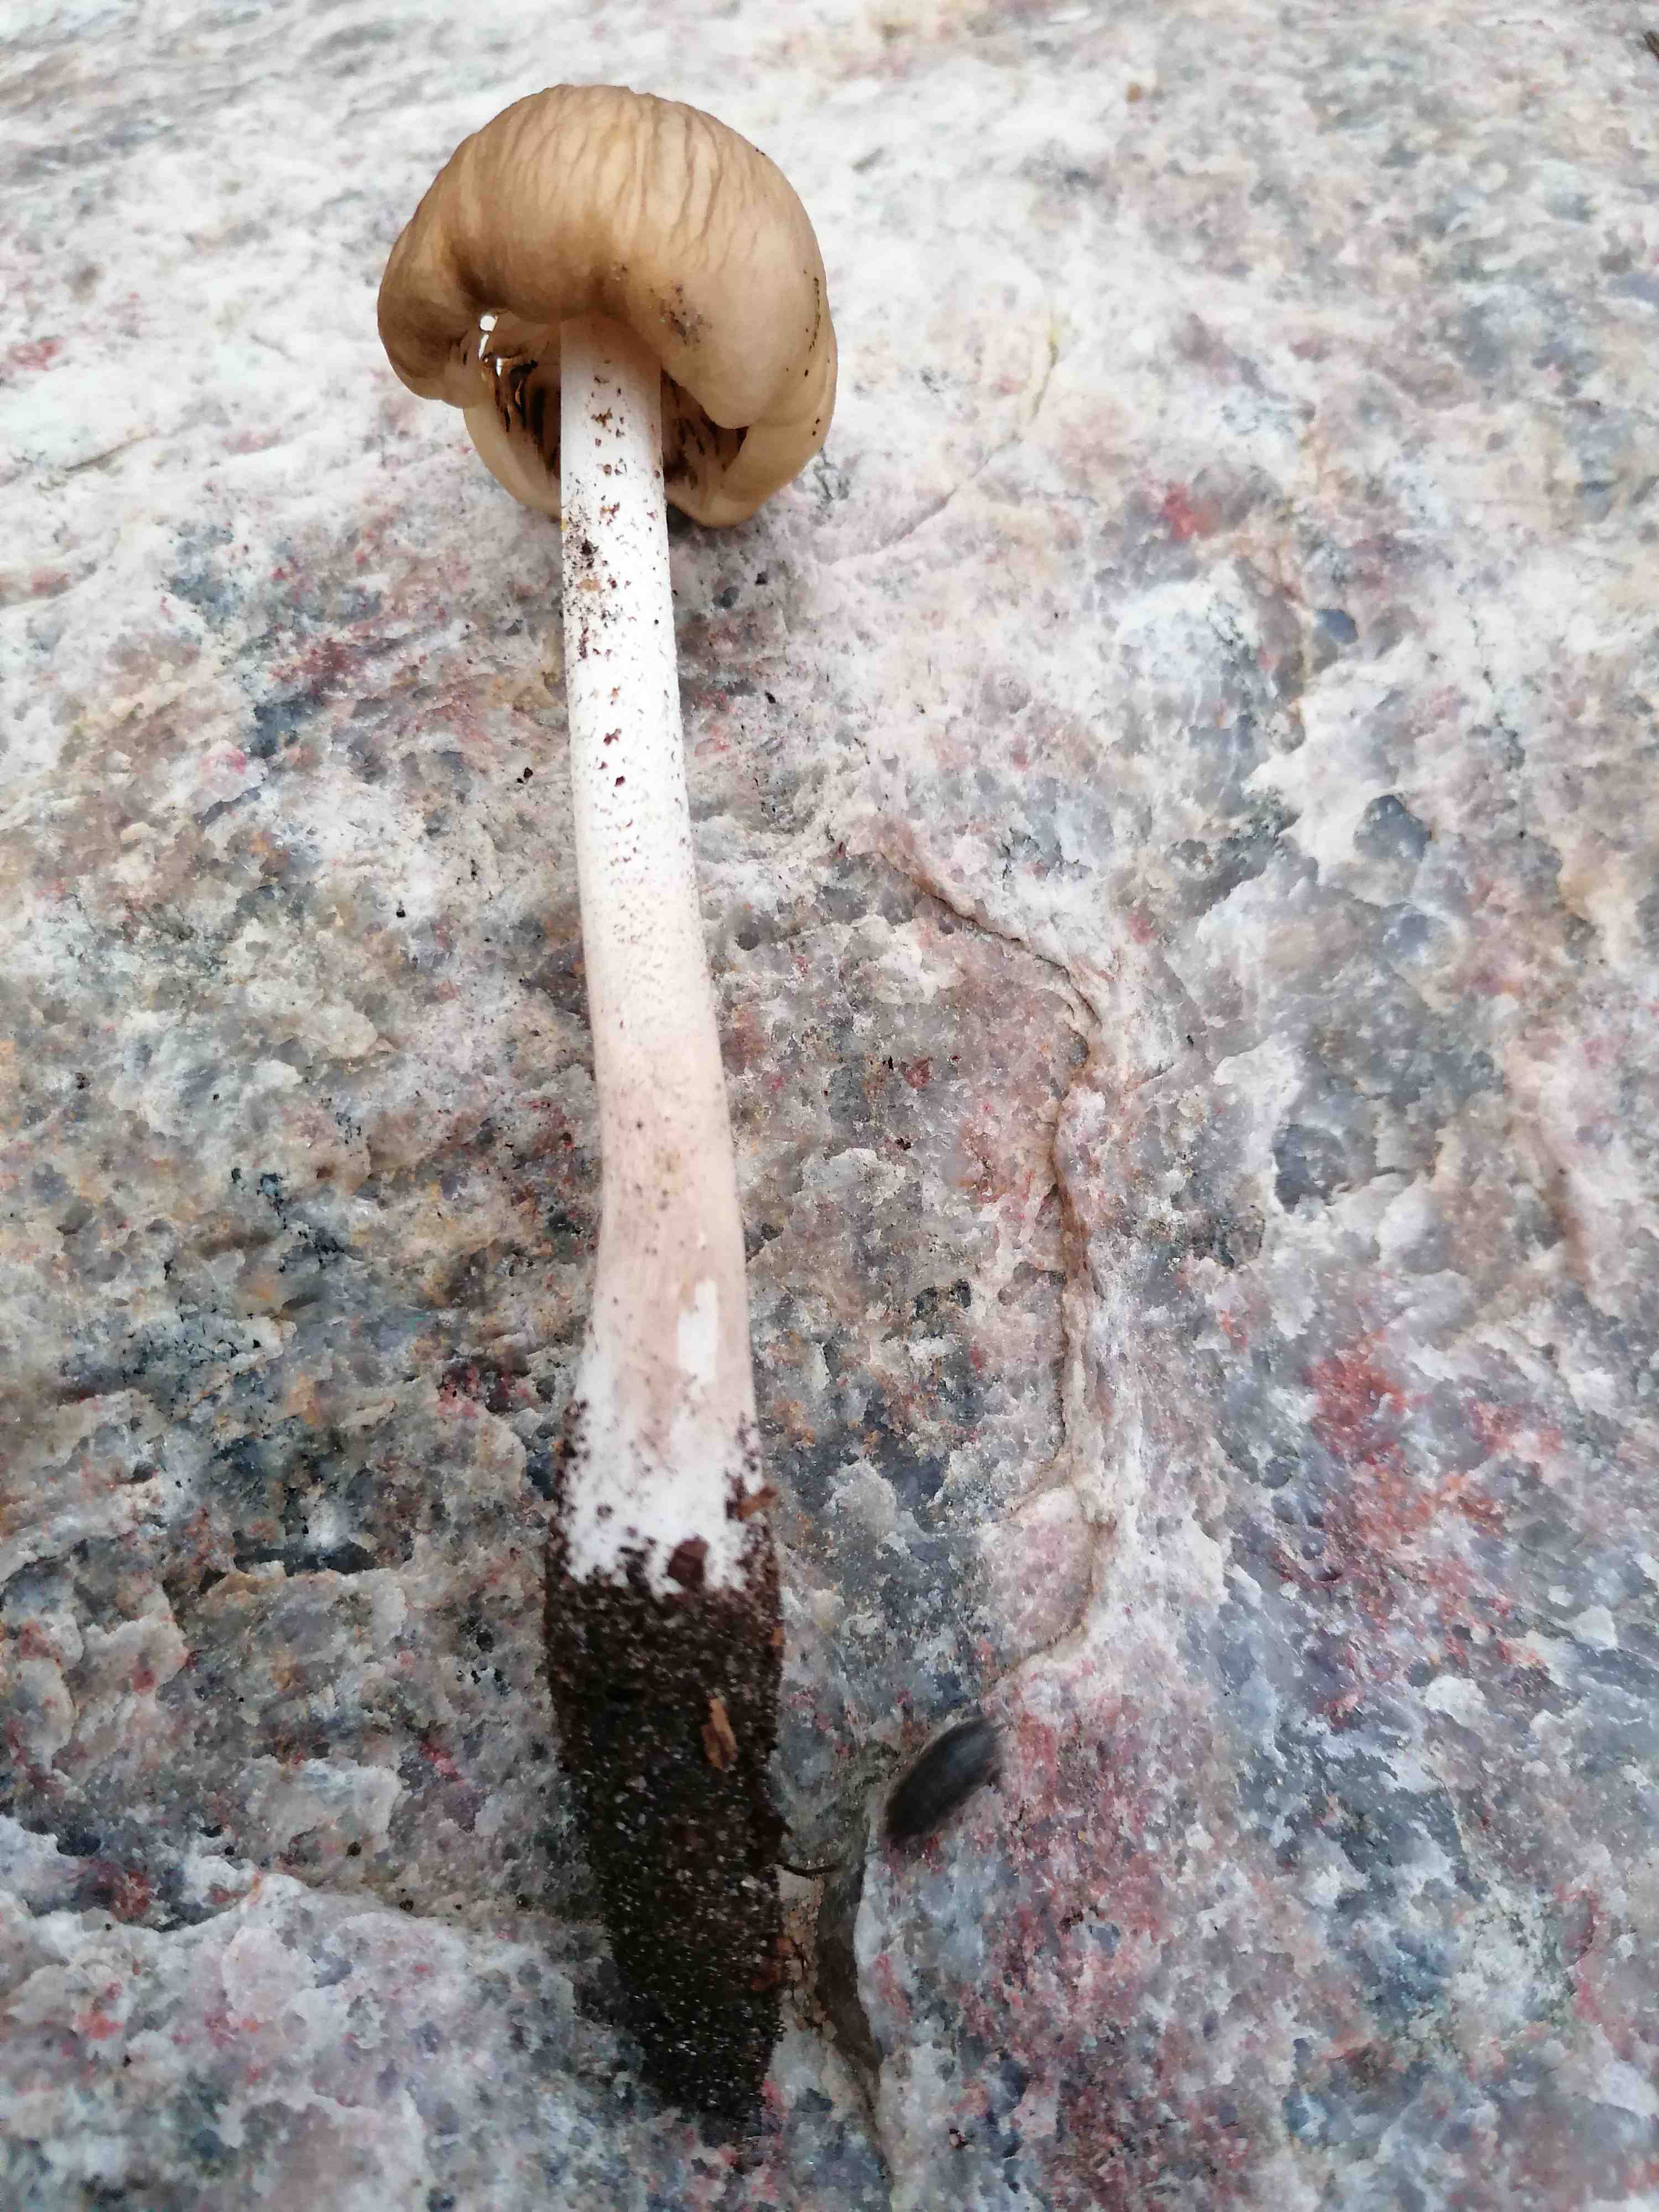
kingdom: Fungi
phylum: Basidiomycota
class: Agaricomycetes
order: Agaricales
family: Physalacriaceae
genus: Hymenopellis
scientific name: Hymenopellis radicata
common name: almindelig pælerodshat
